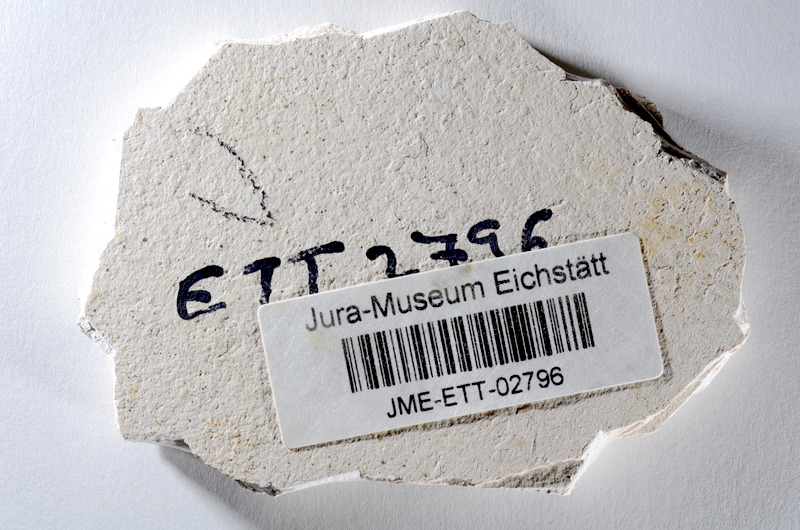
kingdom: Animalia
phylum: Chordata
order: Salmoniformes
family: Orthogonikleithridae
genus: Orthogonikleithrus
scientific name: Orthogonikleithrus hoelli
